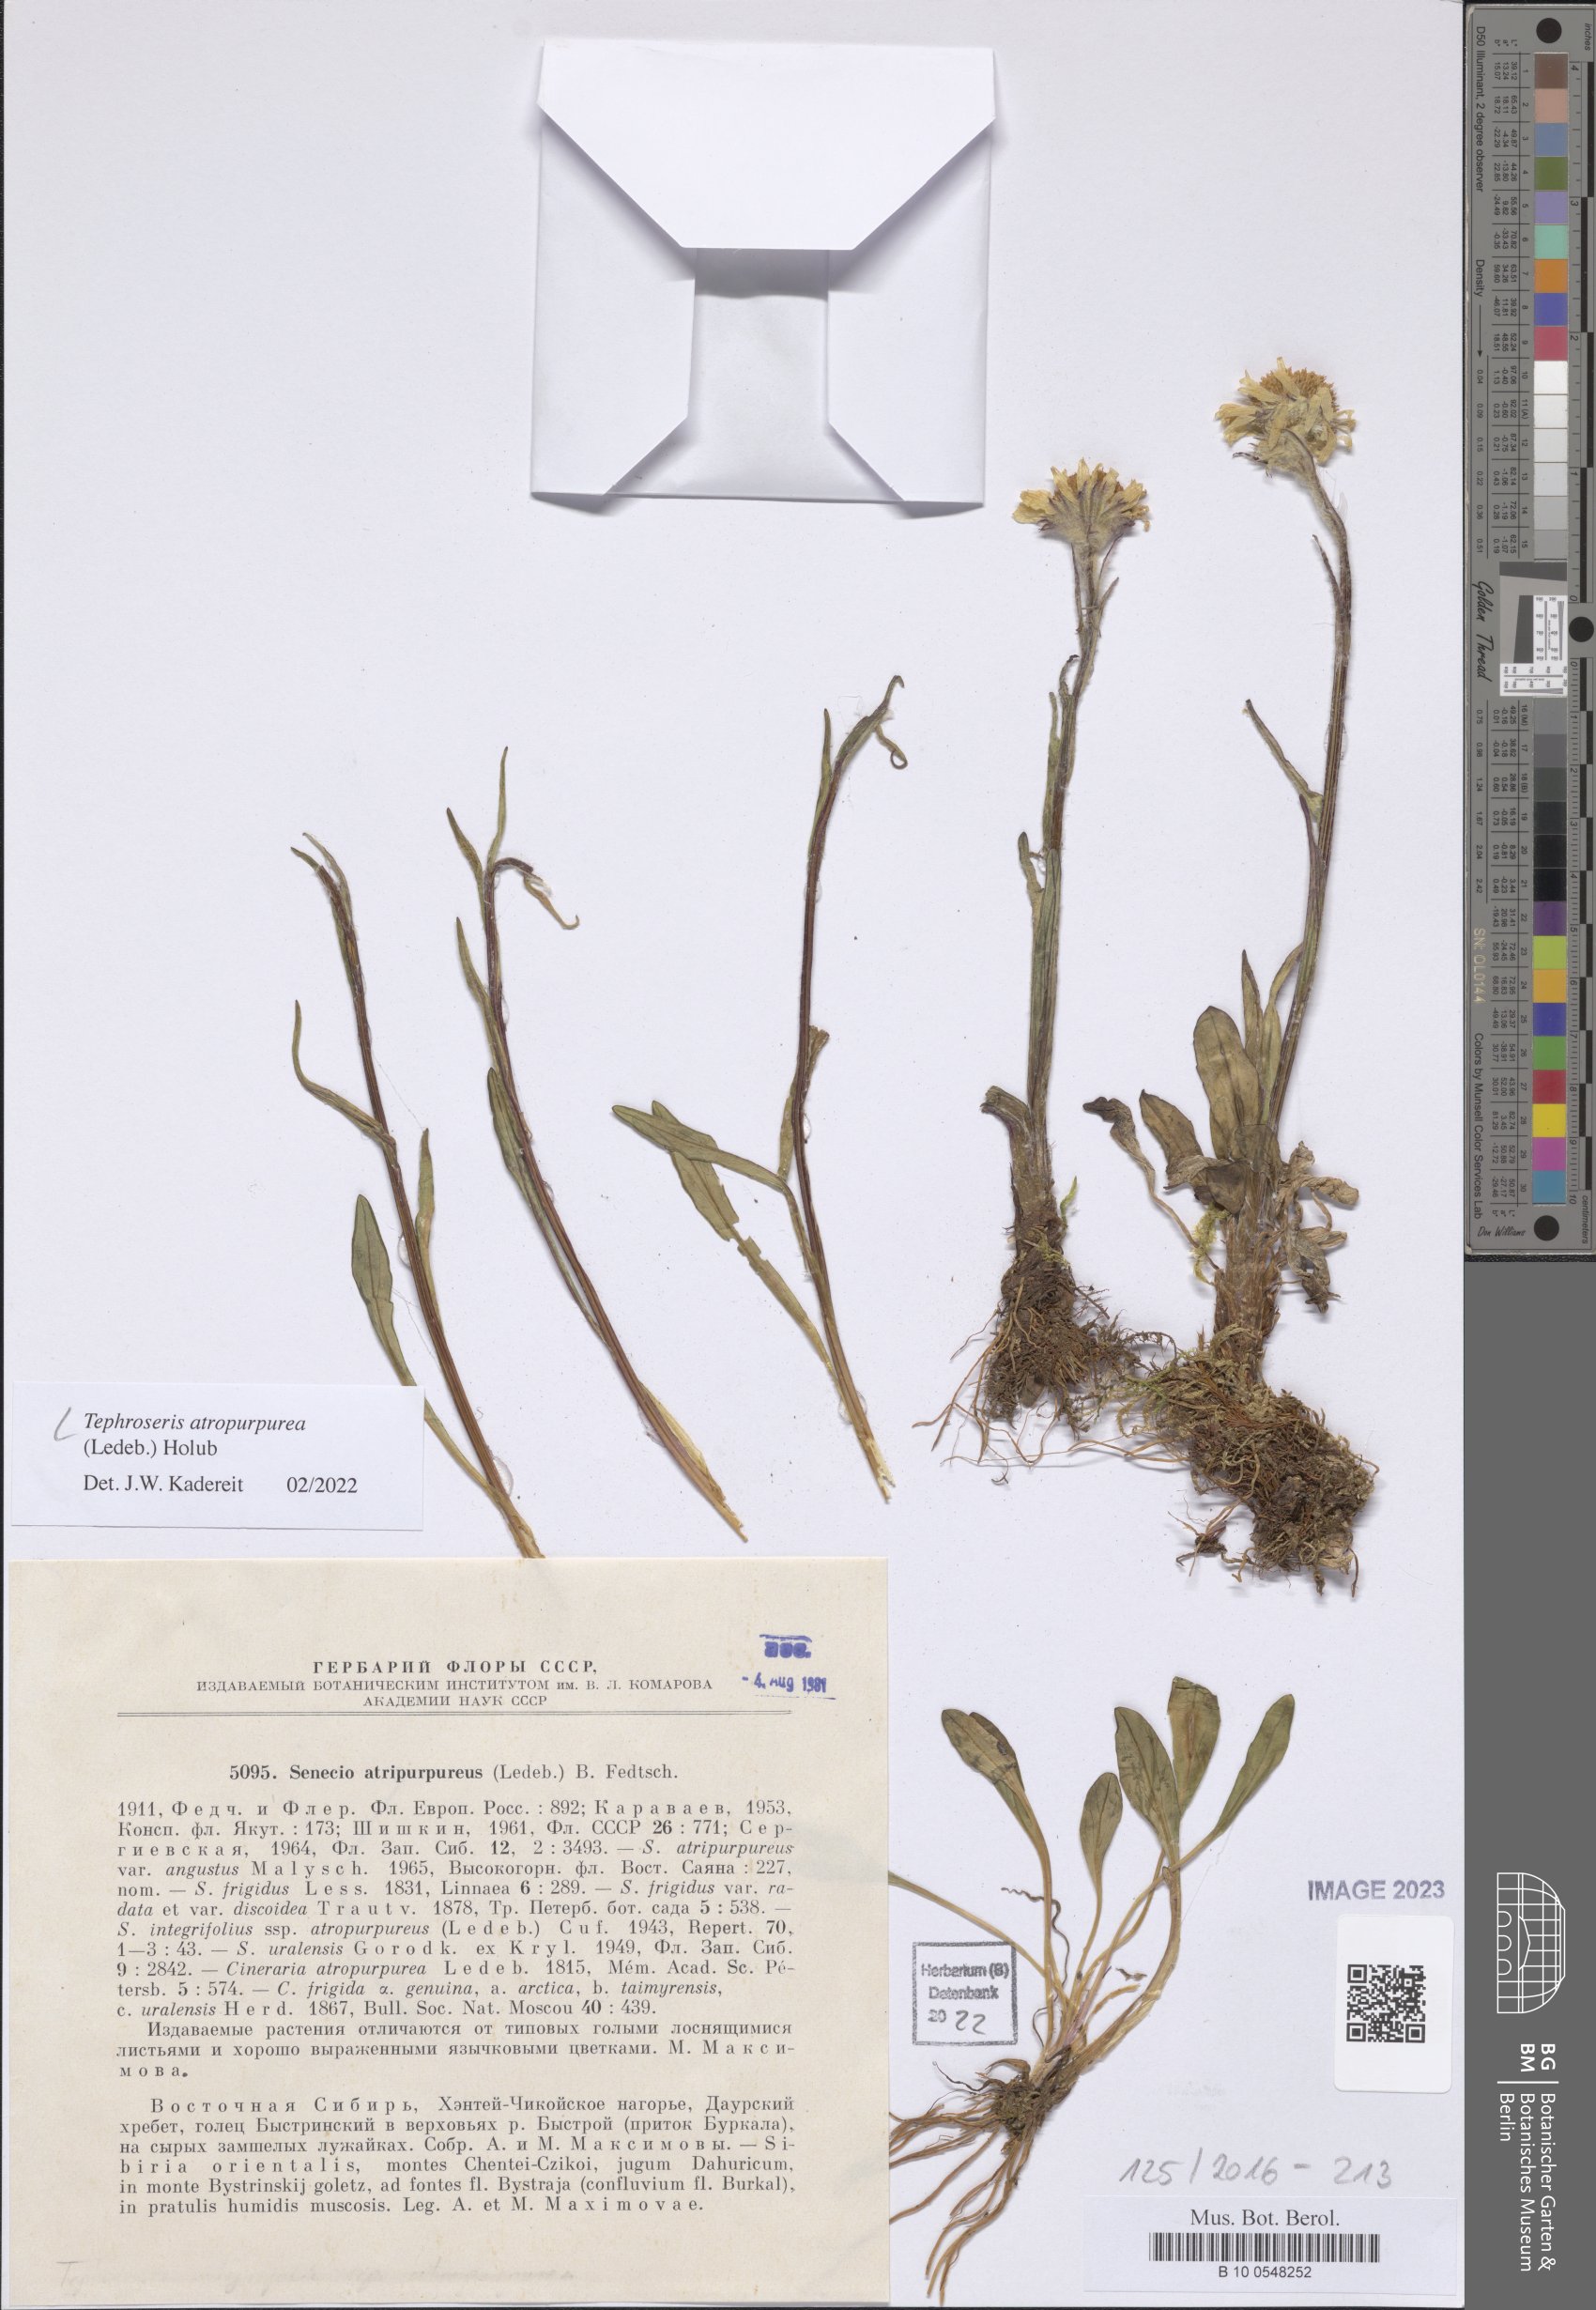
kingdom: Plantae
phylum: Tracheophyta
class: Magnoliopsida
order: Asterales
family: Asteraceae
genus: Tephroseris
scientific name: Tephroseris integrifolia
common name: Field fleawort
